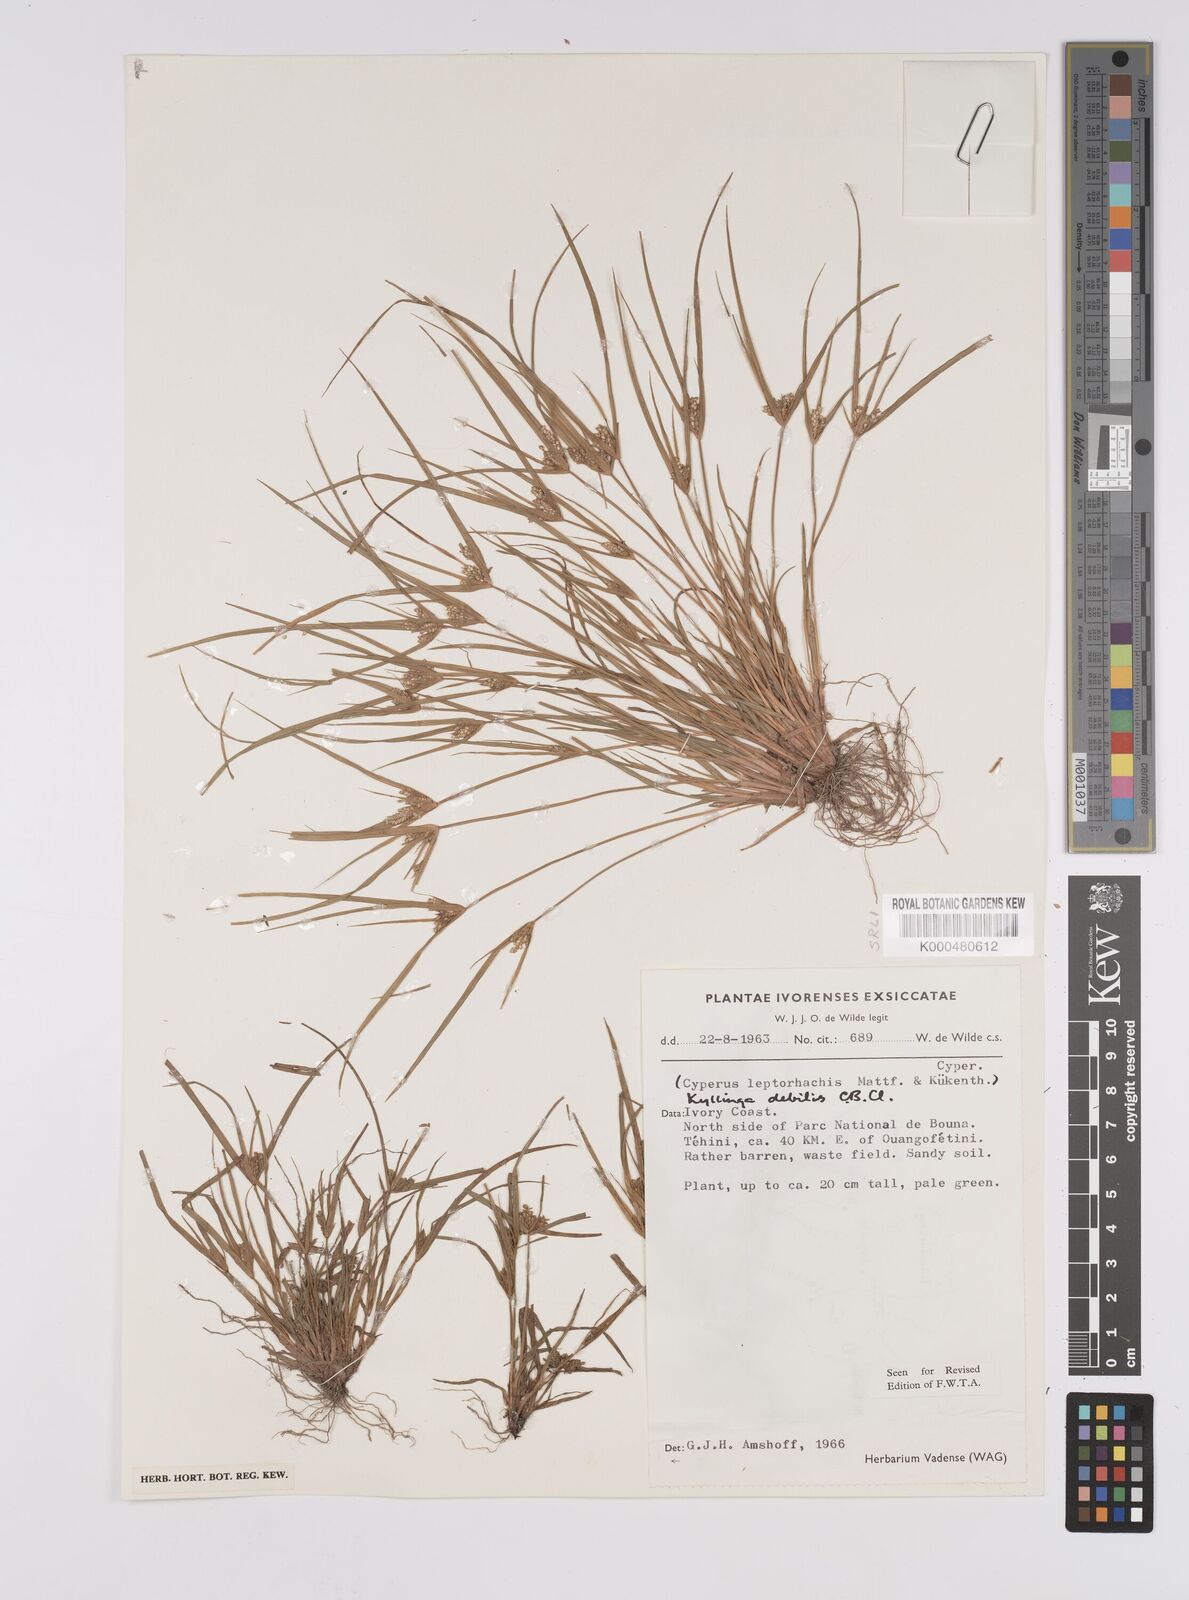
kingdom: Plantae
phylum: Tracheophyta
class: Liliopsida
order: Poales
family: Cyperaceae
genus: Cyperus
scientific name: Cyperus leptorhachis
